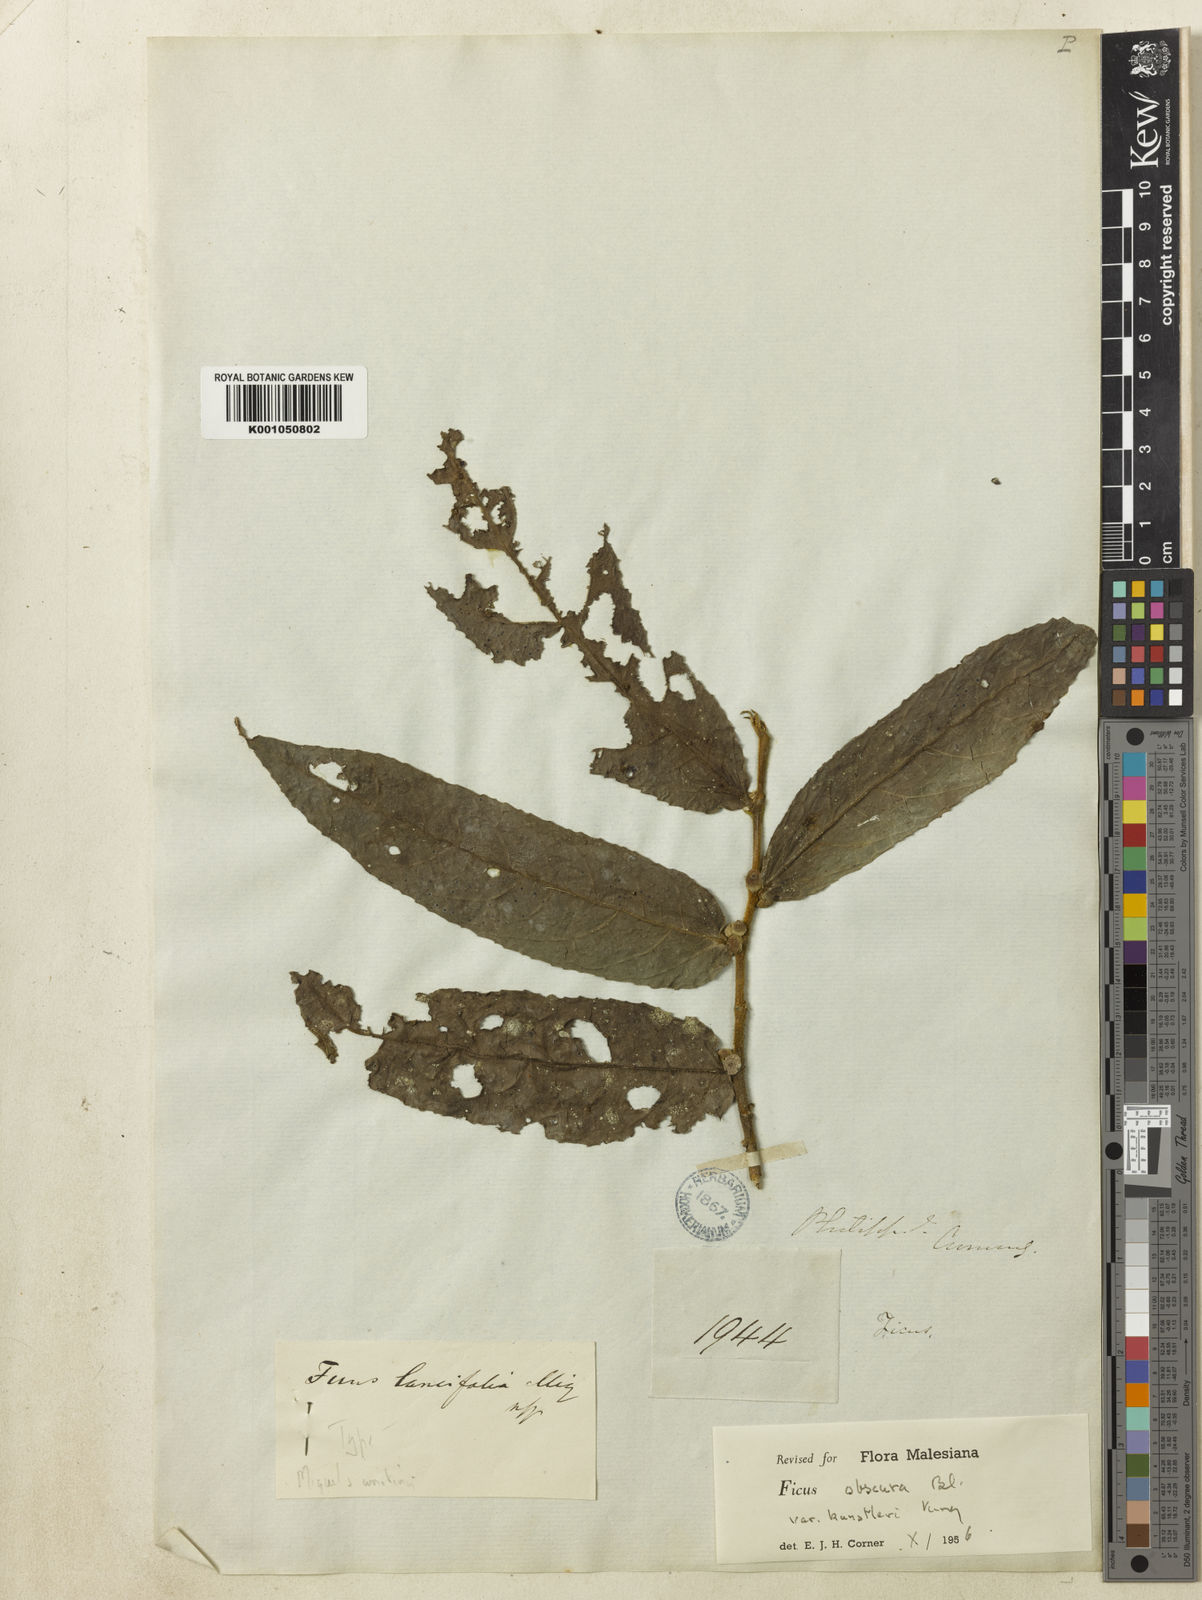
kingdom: Plantae
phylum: Tracheophyta
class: Magnoliopsida
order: Rosales
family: Moraceae
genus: Ficus
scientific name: Ficus obscura
